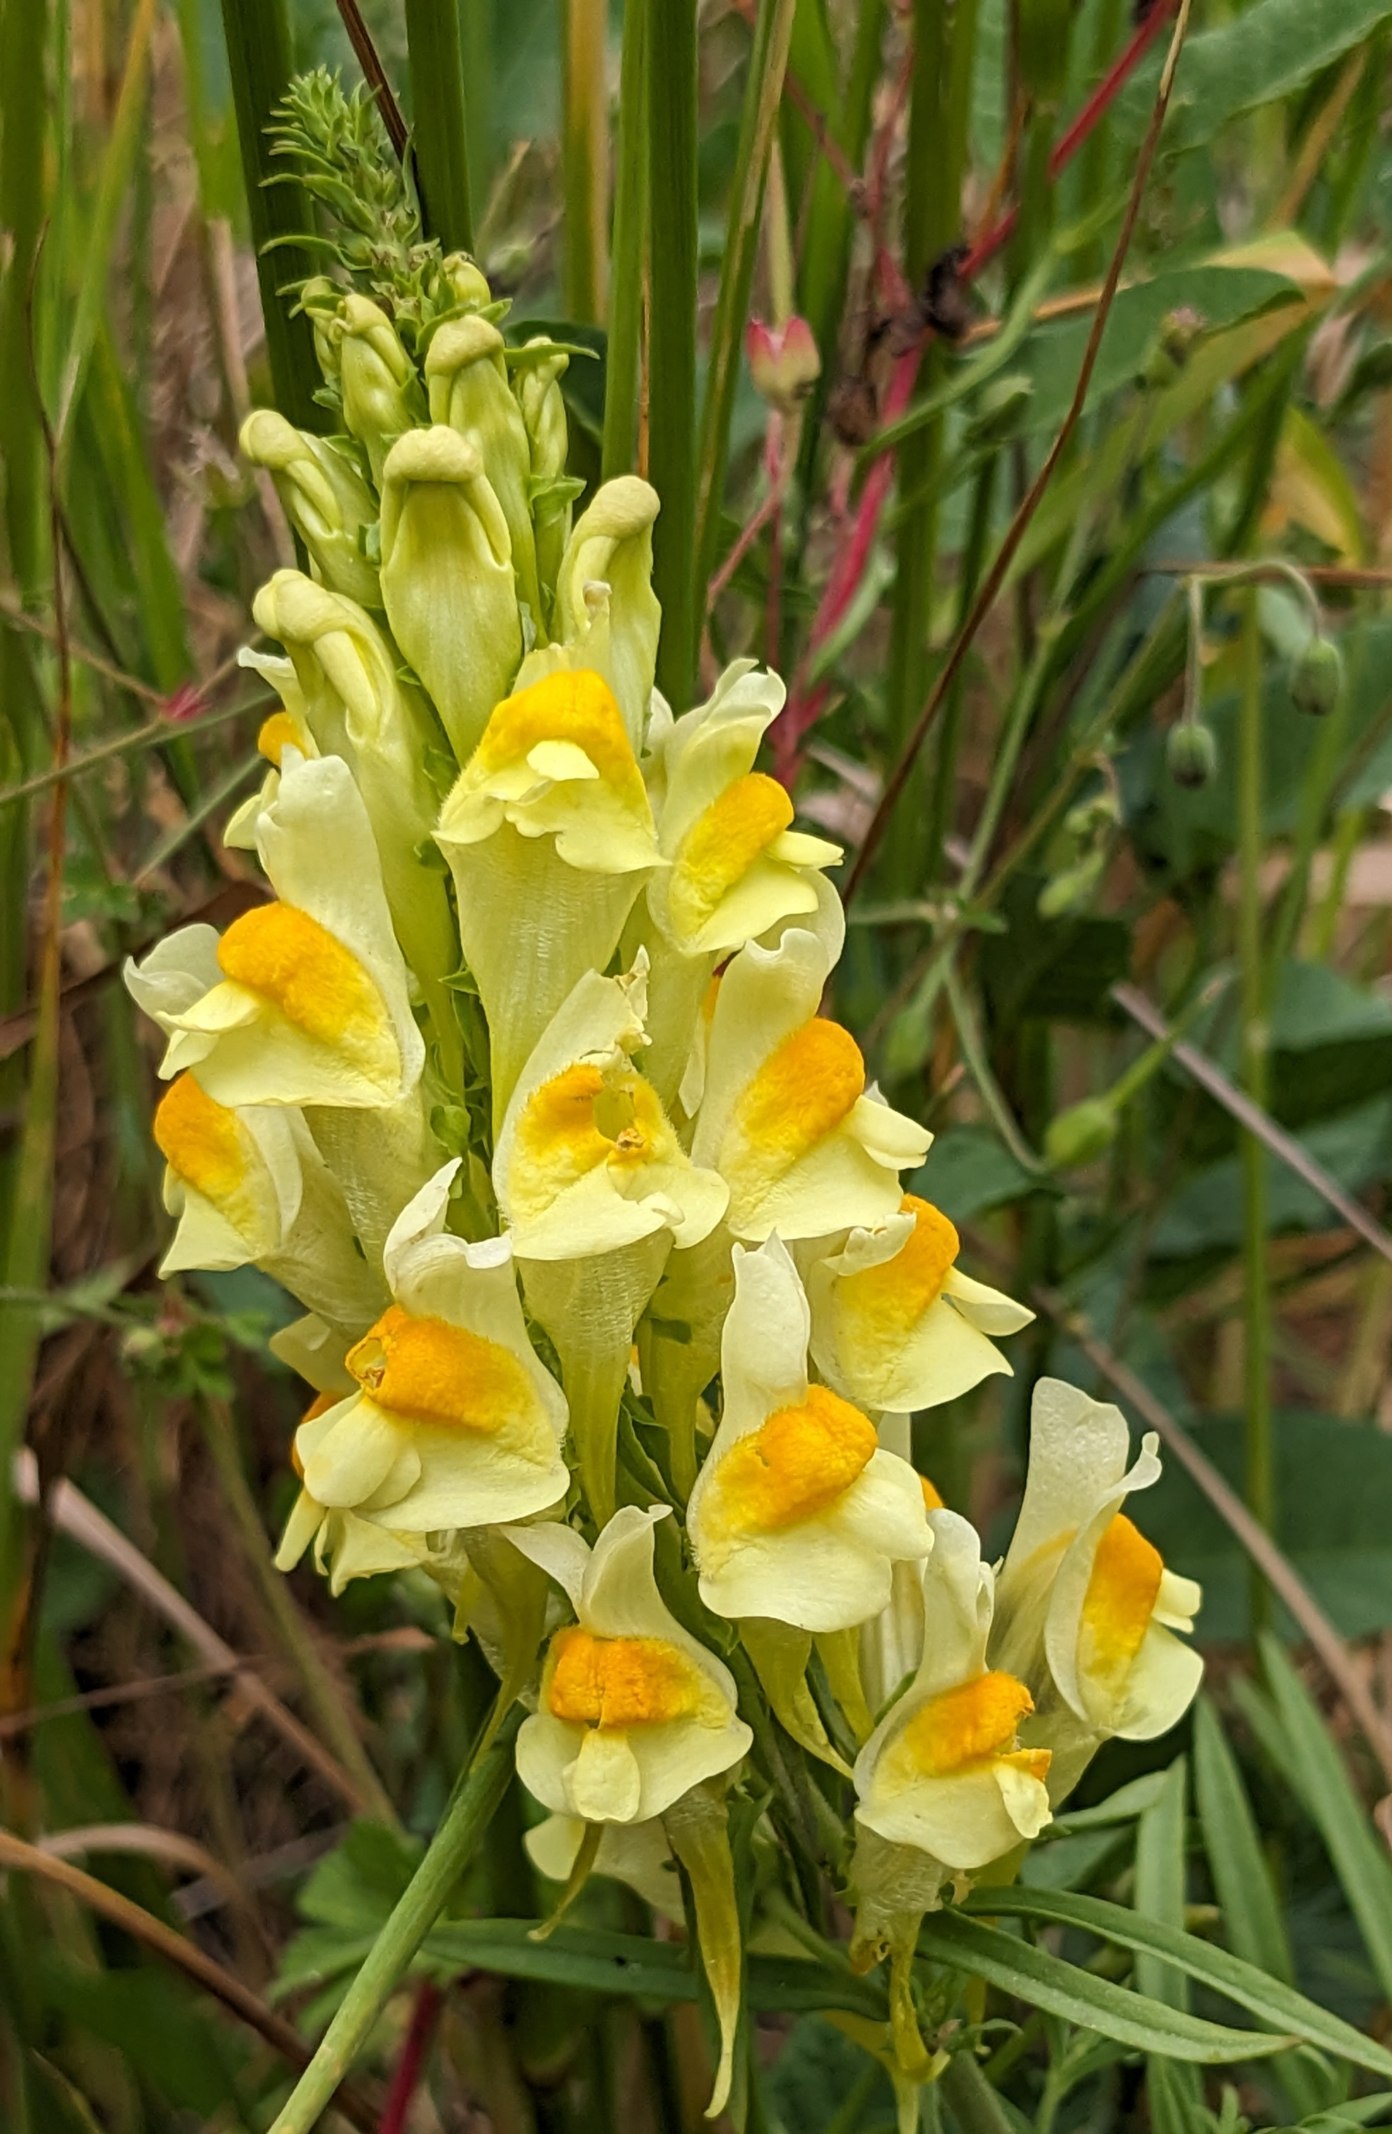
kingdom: Plantae
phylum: Tracheophyta
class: Magnoliopsida
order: Lamiales
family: Plantaginaceae
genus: Linaria
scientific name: Linaria vulgaris
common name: Almindelig torskemund
